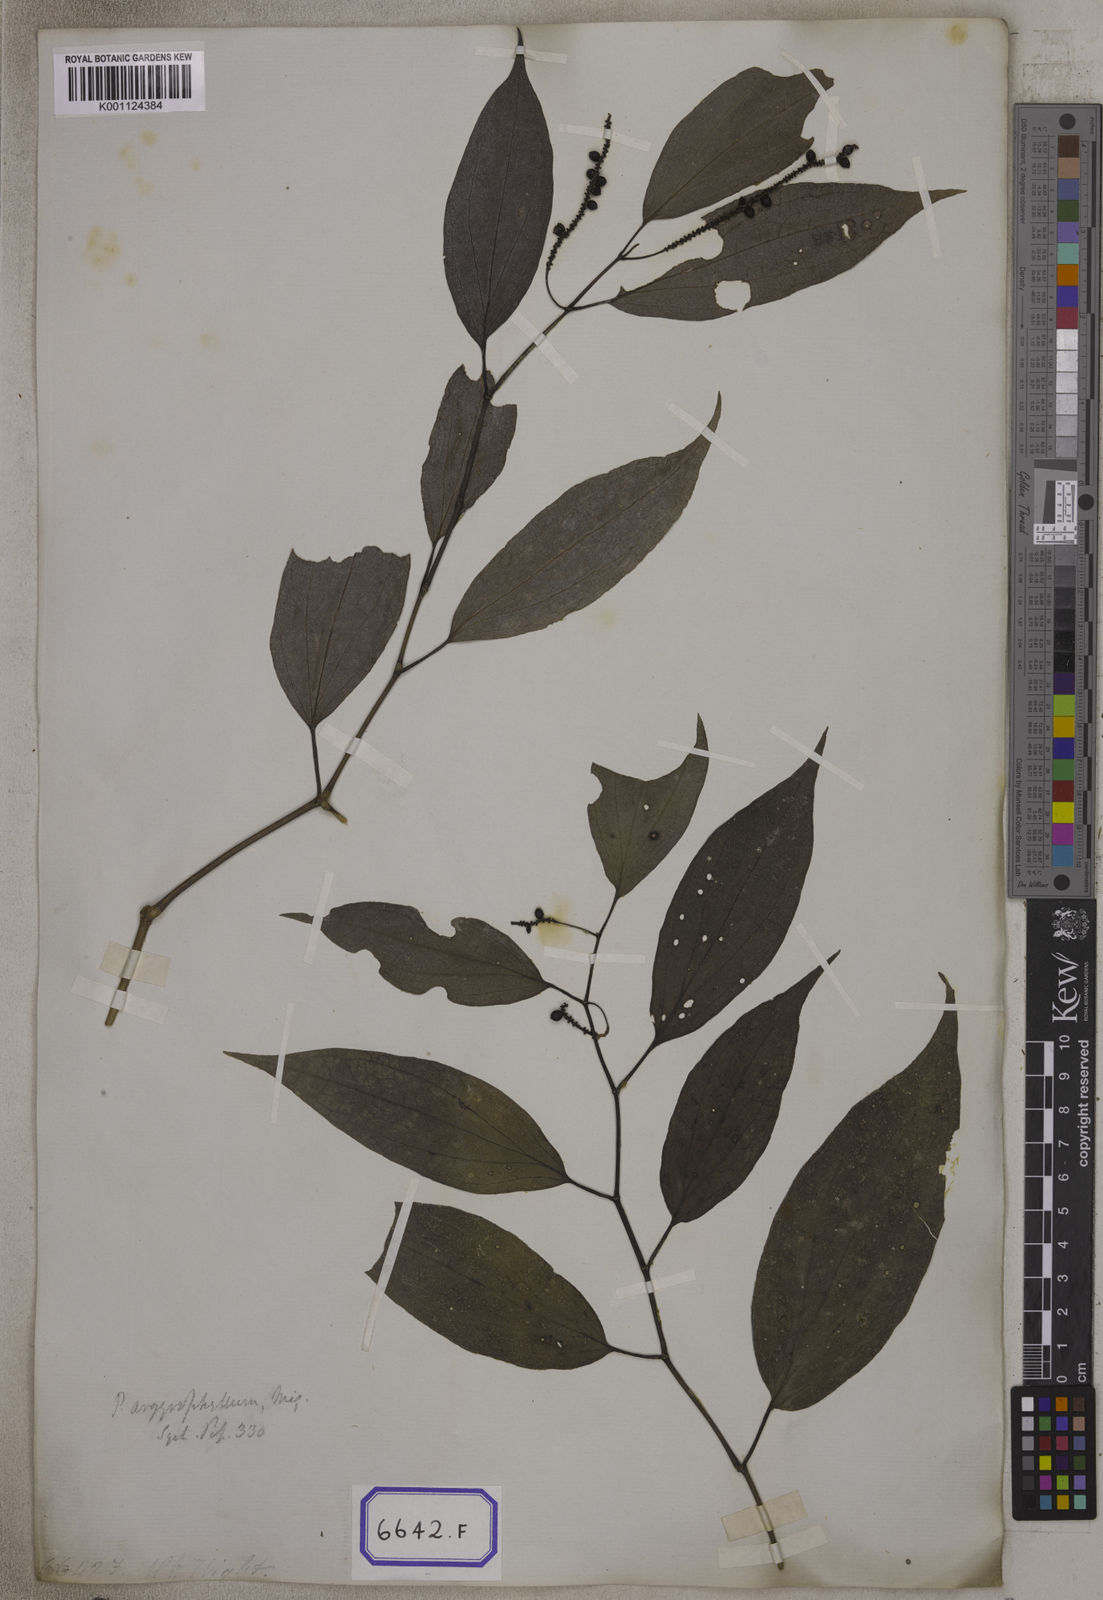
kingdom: Plantae
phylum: Tracheophyta
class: Magnoliopsida
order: Piperales
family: Piperaceae
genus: Piper
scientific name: Piper
